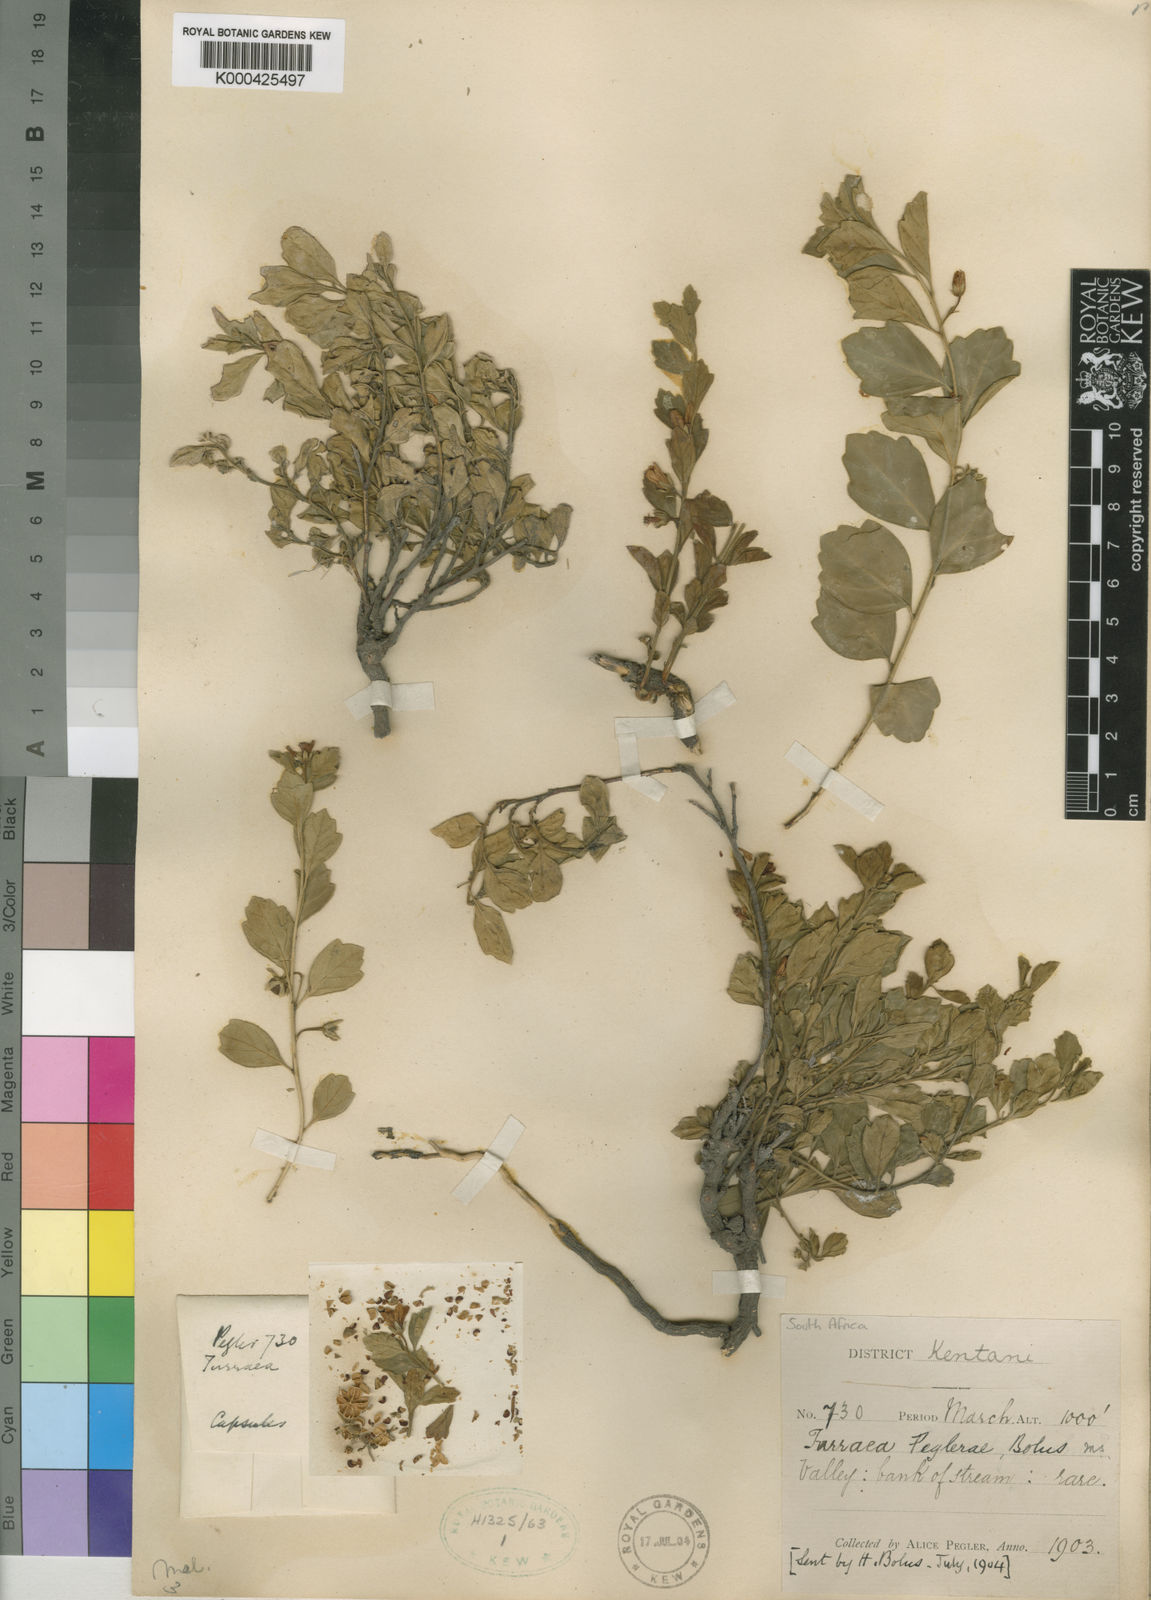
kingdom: Plantae
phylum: Tracheophyta
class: Magnoliopsida
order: Sapindales
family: Meliaceae
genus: Turraea
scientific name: Turraea
